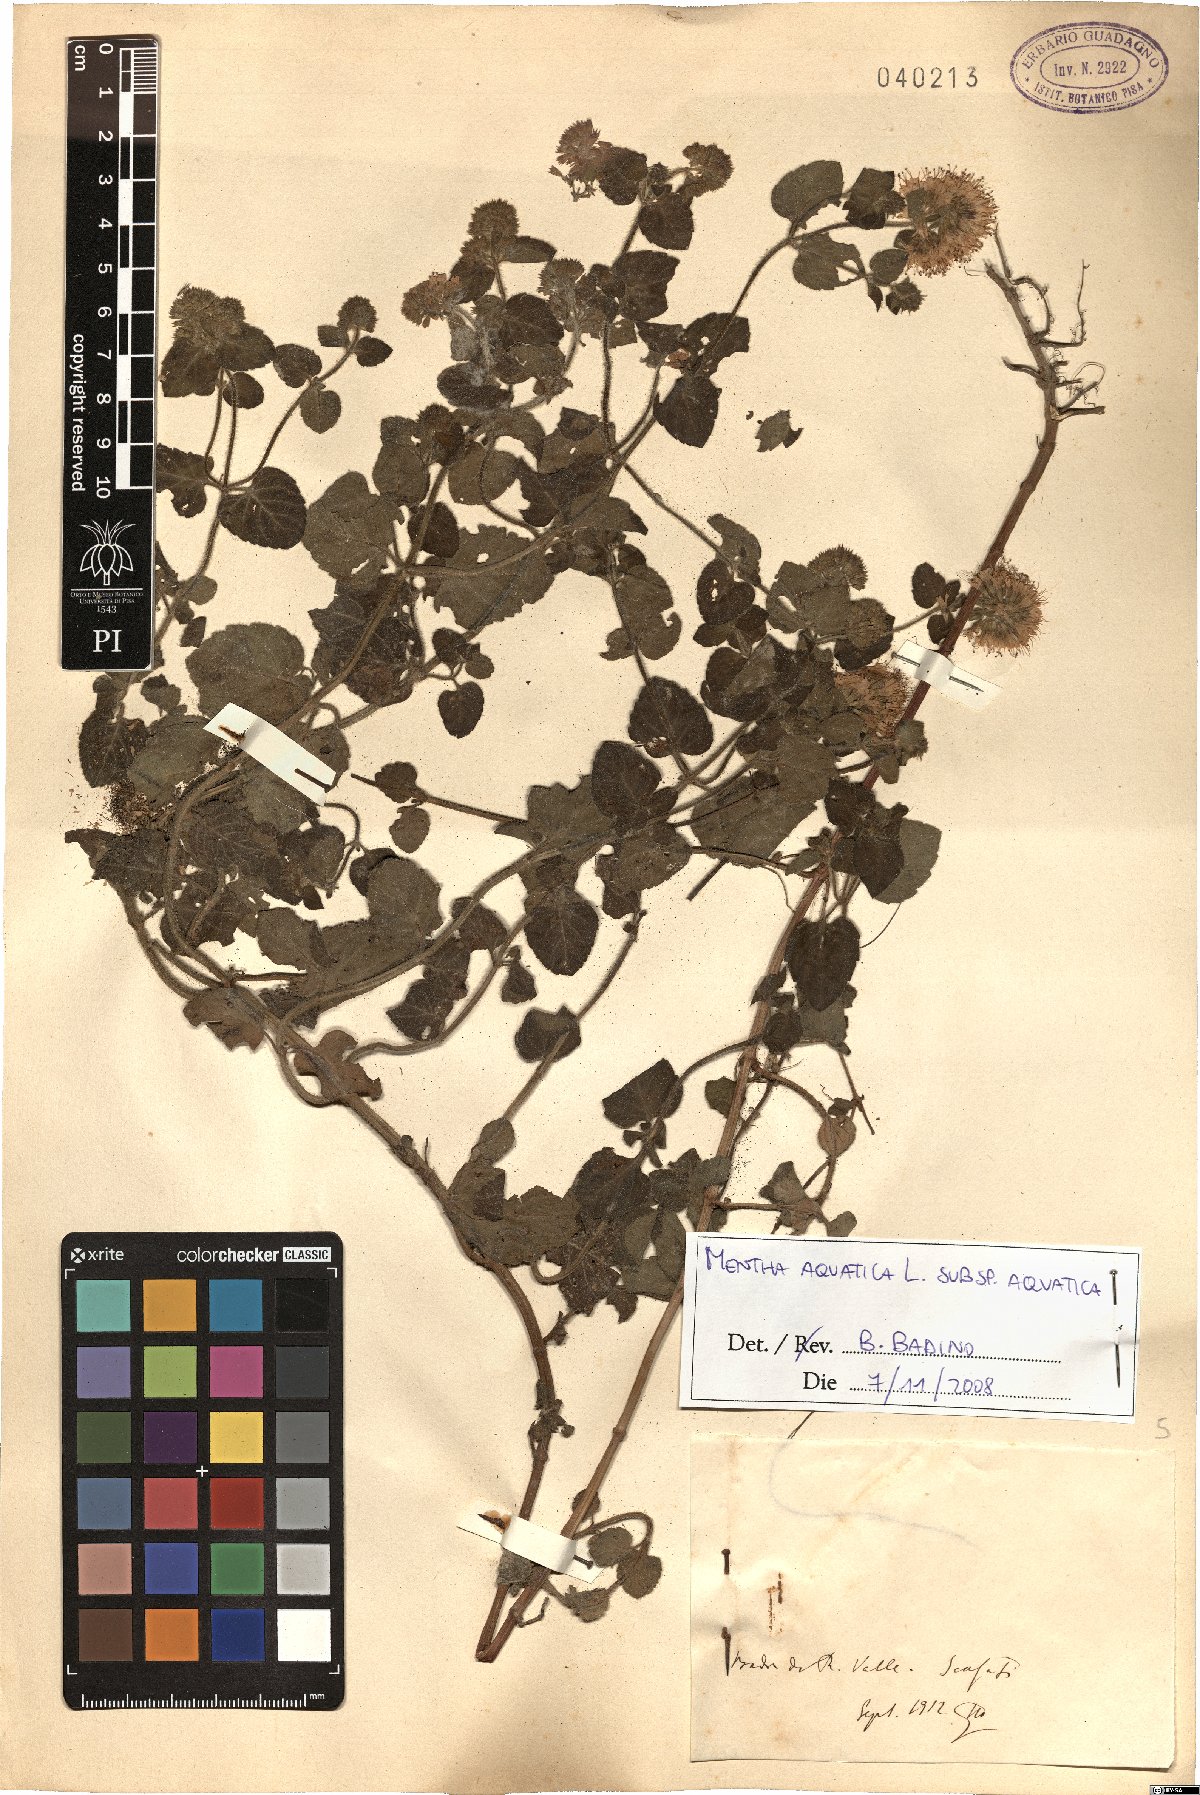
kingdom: Plantae
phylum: Tracheophyta
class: Magnoliopsida
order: Lamiales
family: Lamiaceae
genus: Mentha
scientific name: Mentha aquatica
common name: Water mint
